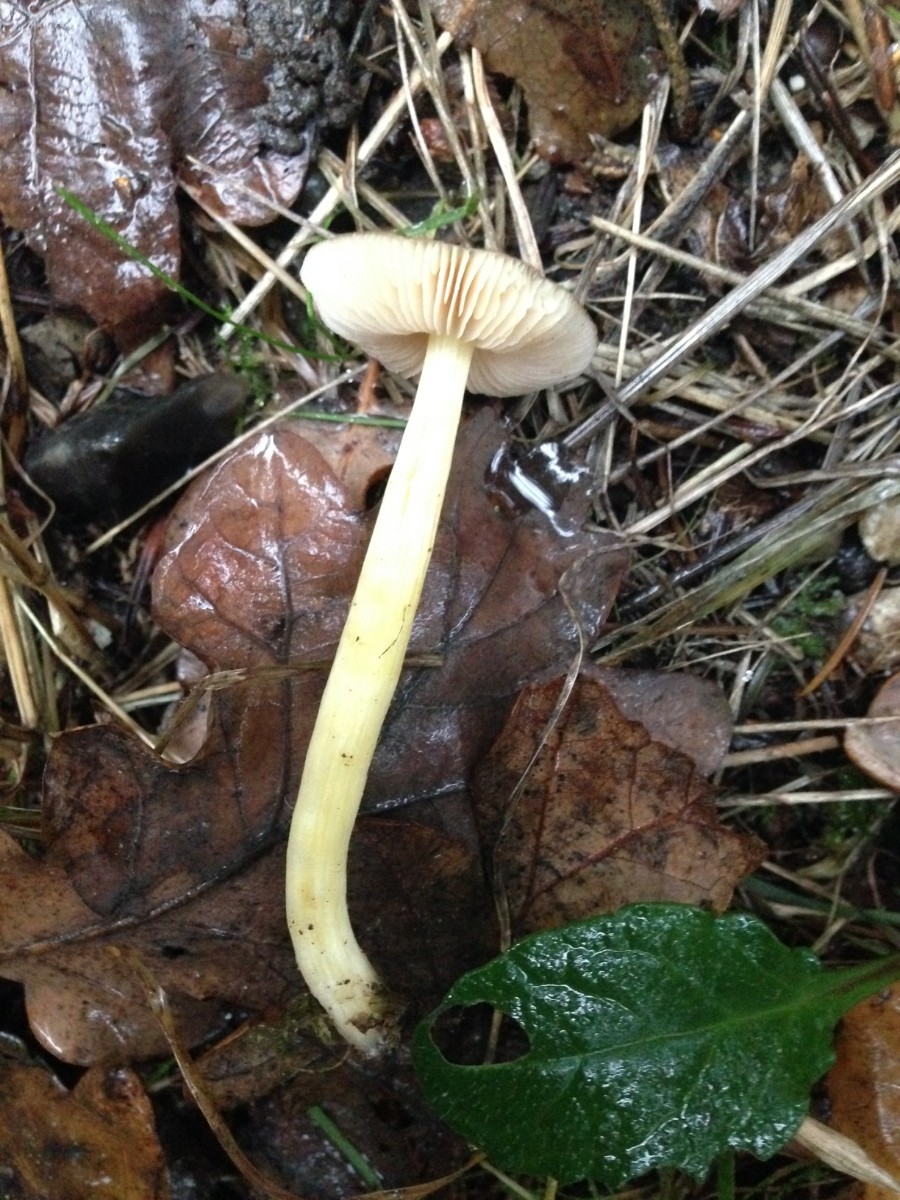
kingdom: Fungi
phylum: Basidiomycota
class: Agaricomycetes
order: Agaricales
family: Pluteaceae
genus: Pluteus
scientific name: Pluteus romellii
